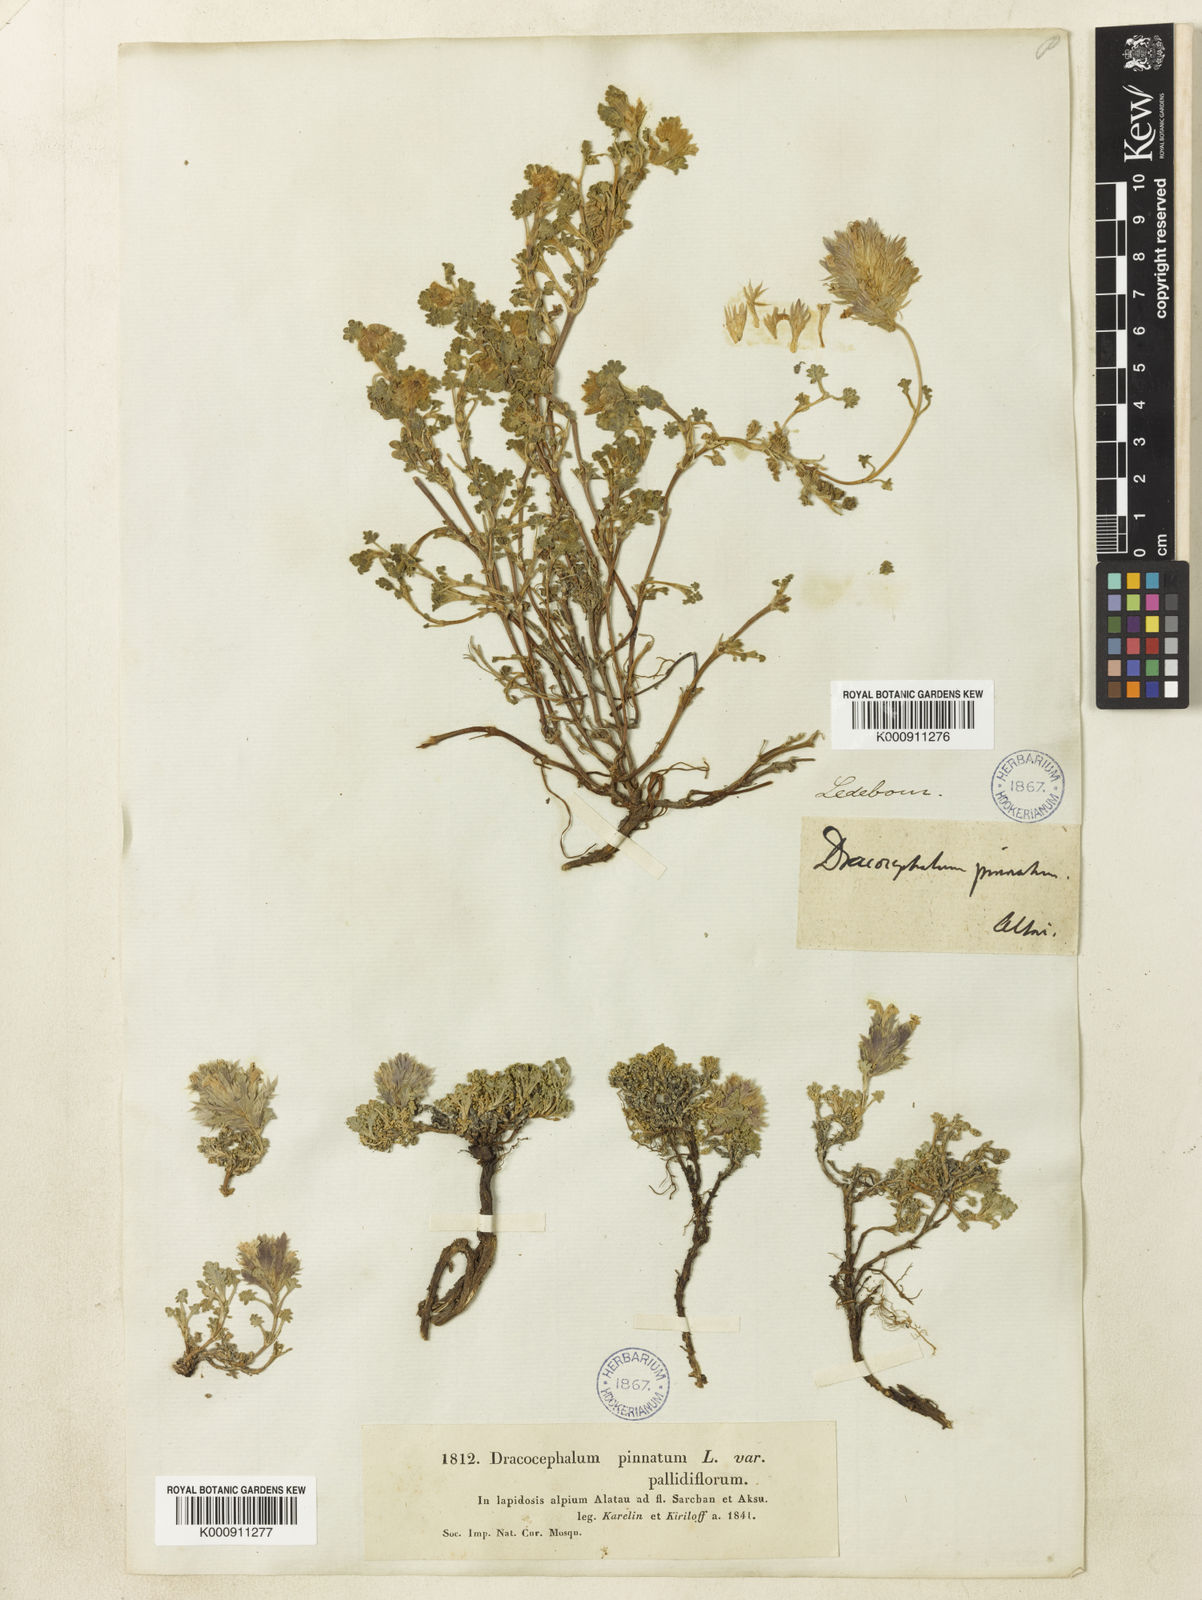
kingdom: Plantae
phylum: Tracheophyta
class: Magnoliopsida
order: Lamiales
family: Lamiaceae
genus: Dracocephalum
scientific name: Dracocephalum pinnatum
